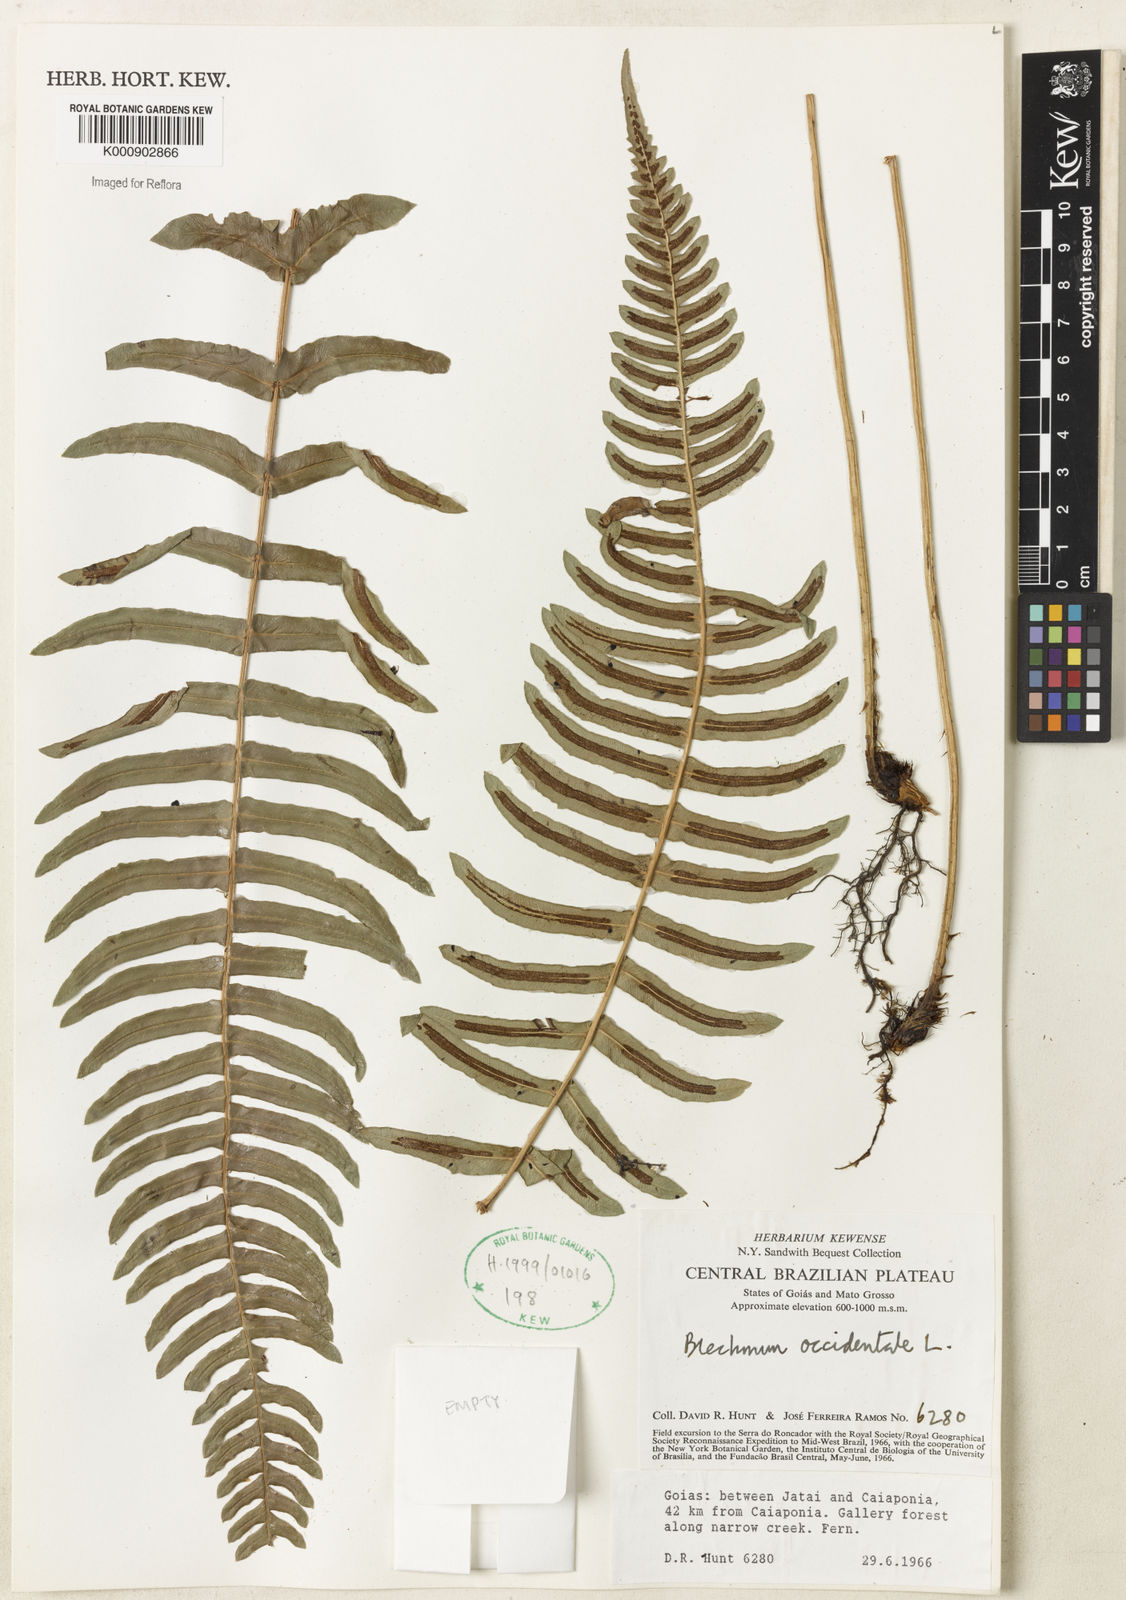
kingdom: Plantae
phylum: Tracheophyta
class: Polypodiopsida
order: Polypodiales
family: Blechnaceae
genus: Blechnum
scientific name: Blechnum occidentale
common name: Hammock fern
